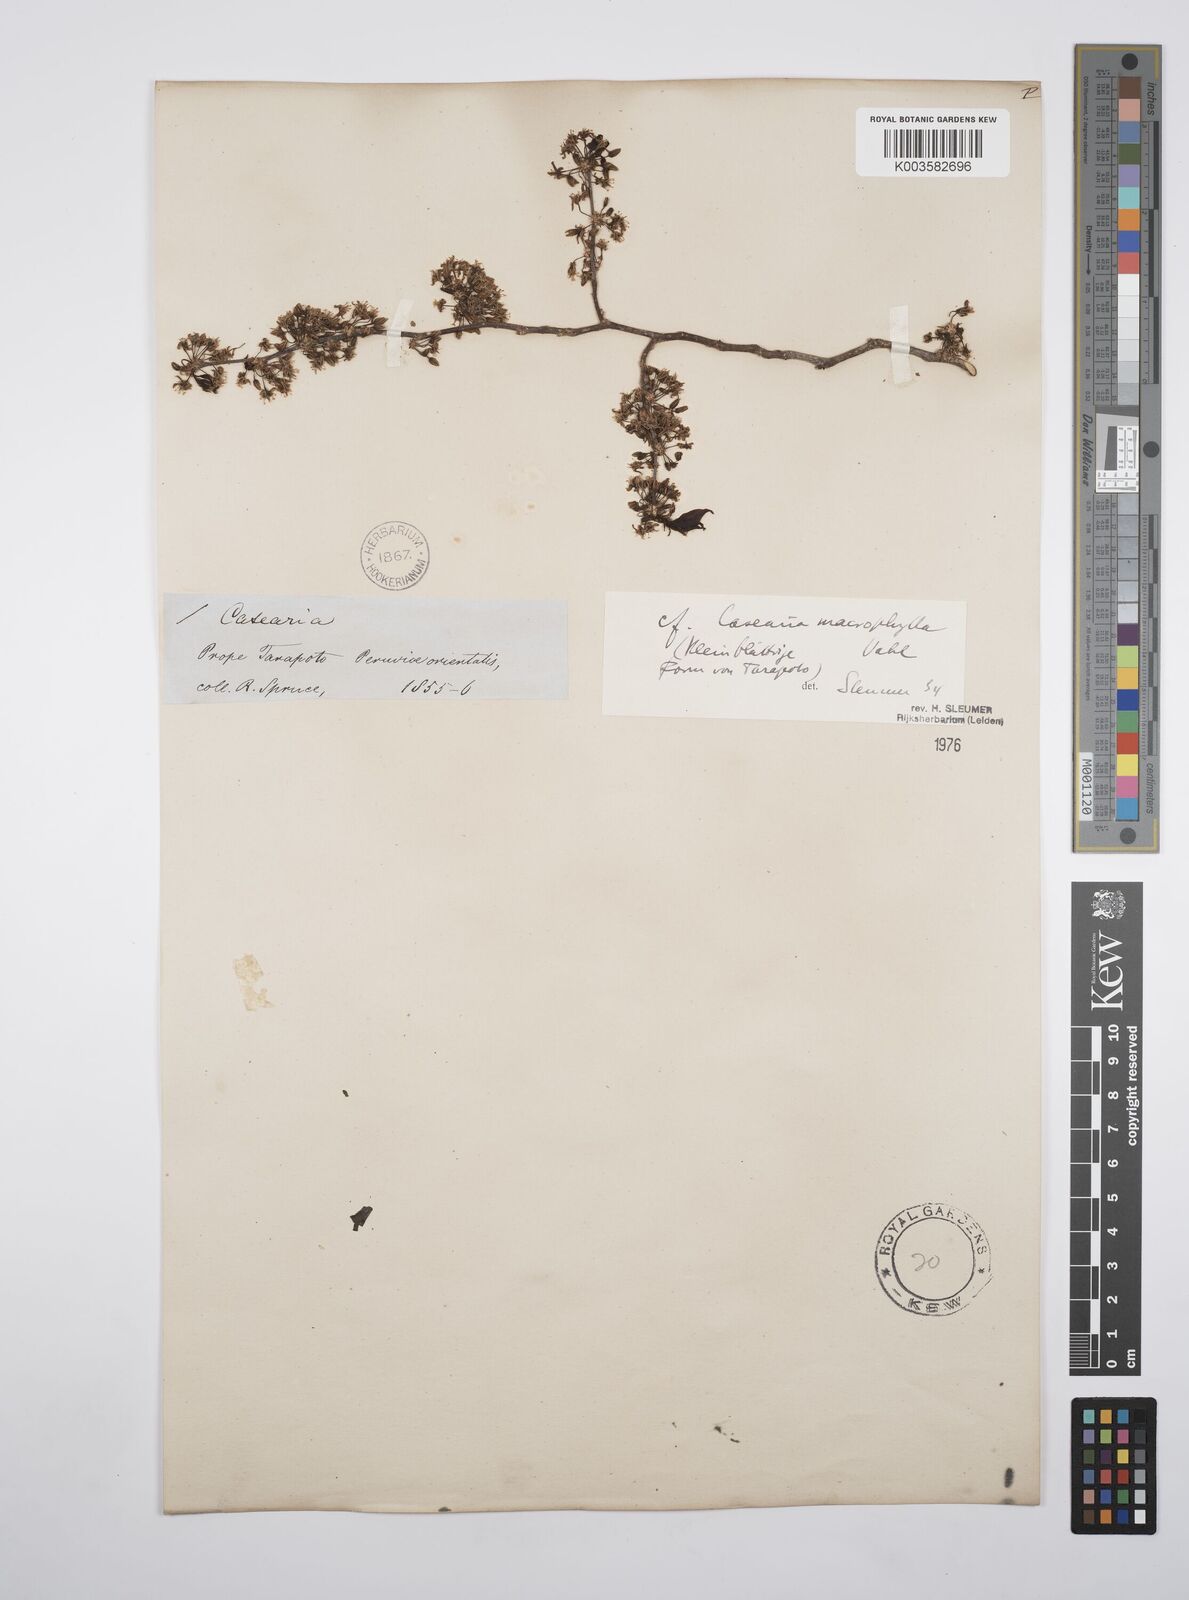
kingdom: Plantae
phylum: Tracheophyta
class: Magnoliopsida
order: Malpighiales
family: Salicaceae
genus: Casearia
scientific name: Casearia pitumba
